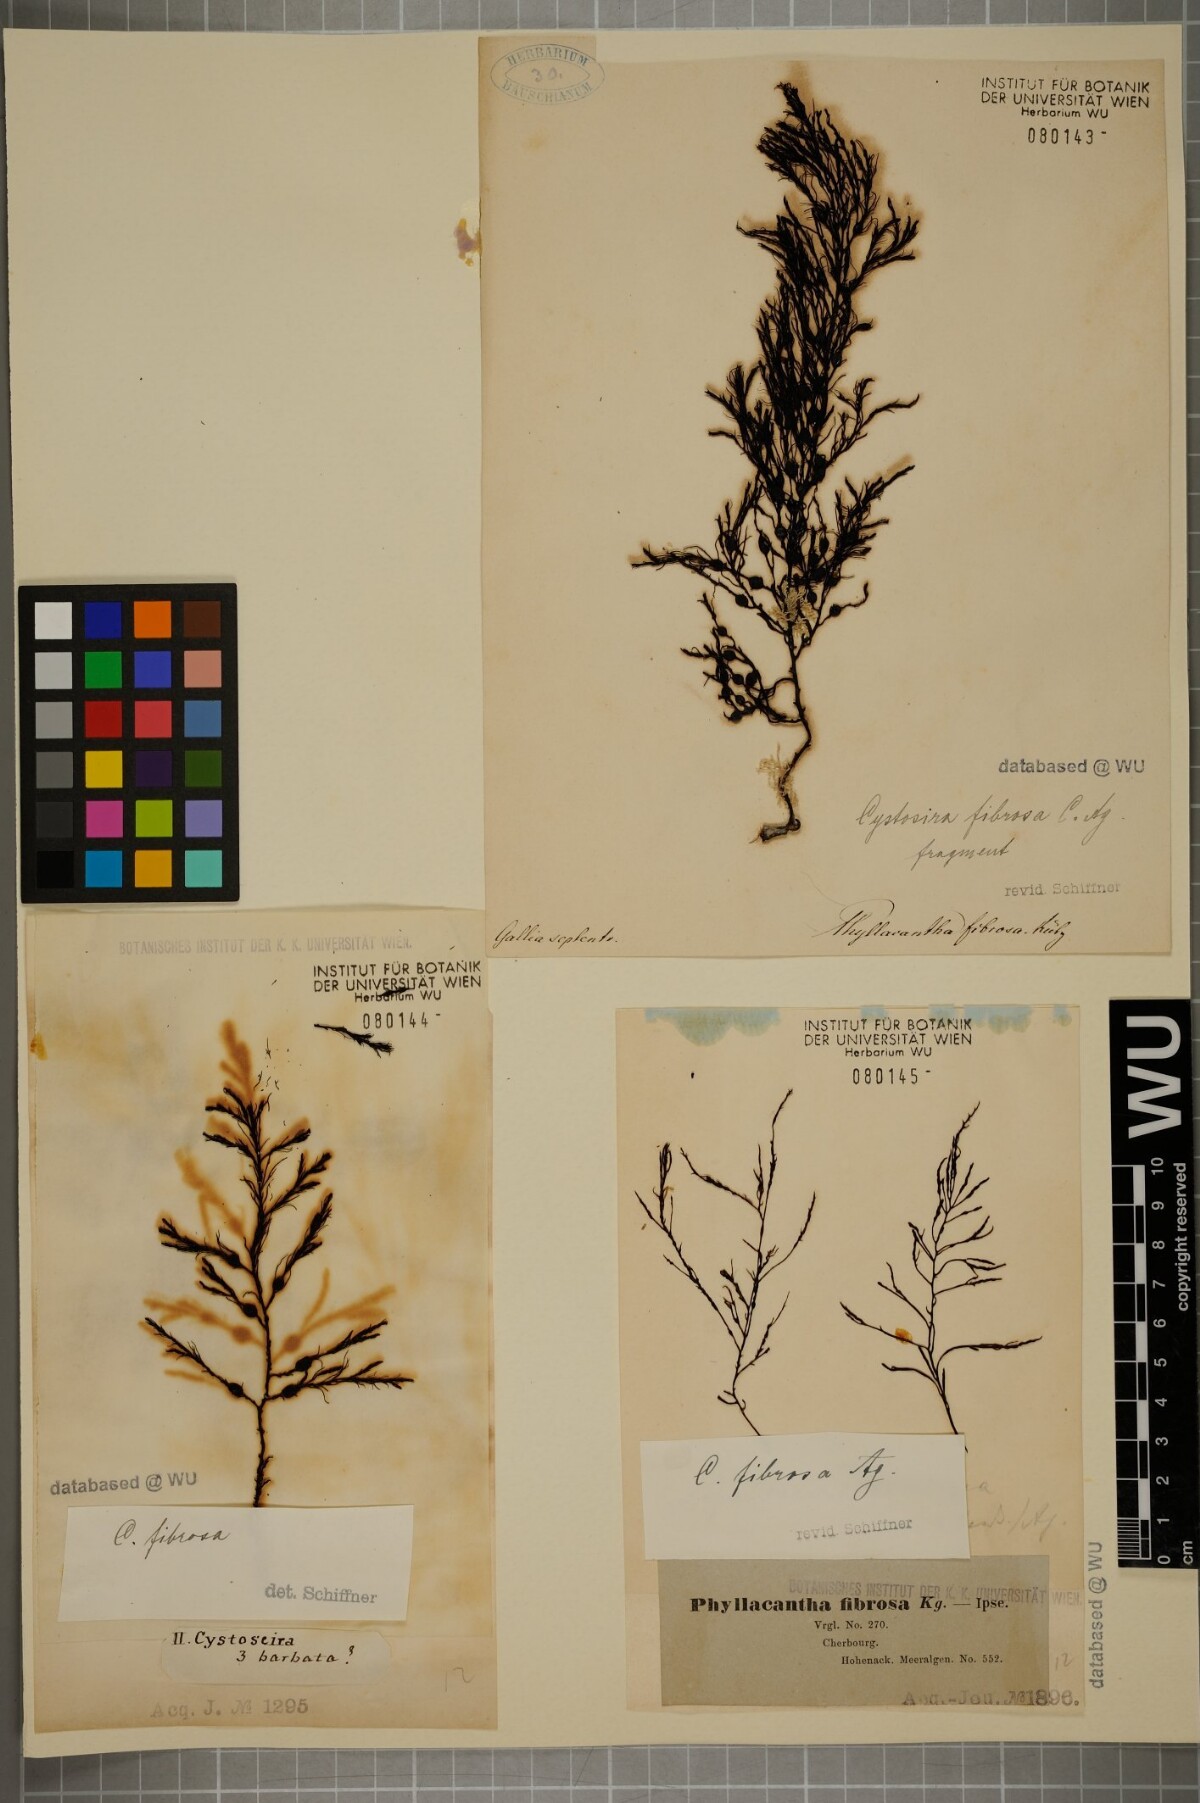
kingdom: Chromista
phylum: Ochrophyta
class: Phaeophyceae
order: Fucales
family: Sargassaceae
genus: Cystoseira
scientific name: Cystoseira Gongolaria baccata
